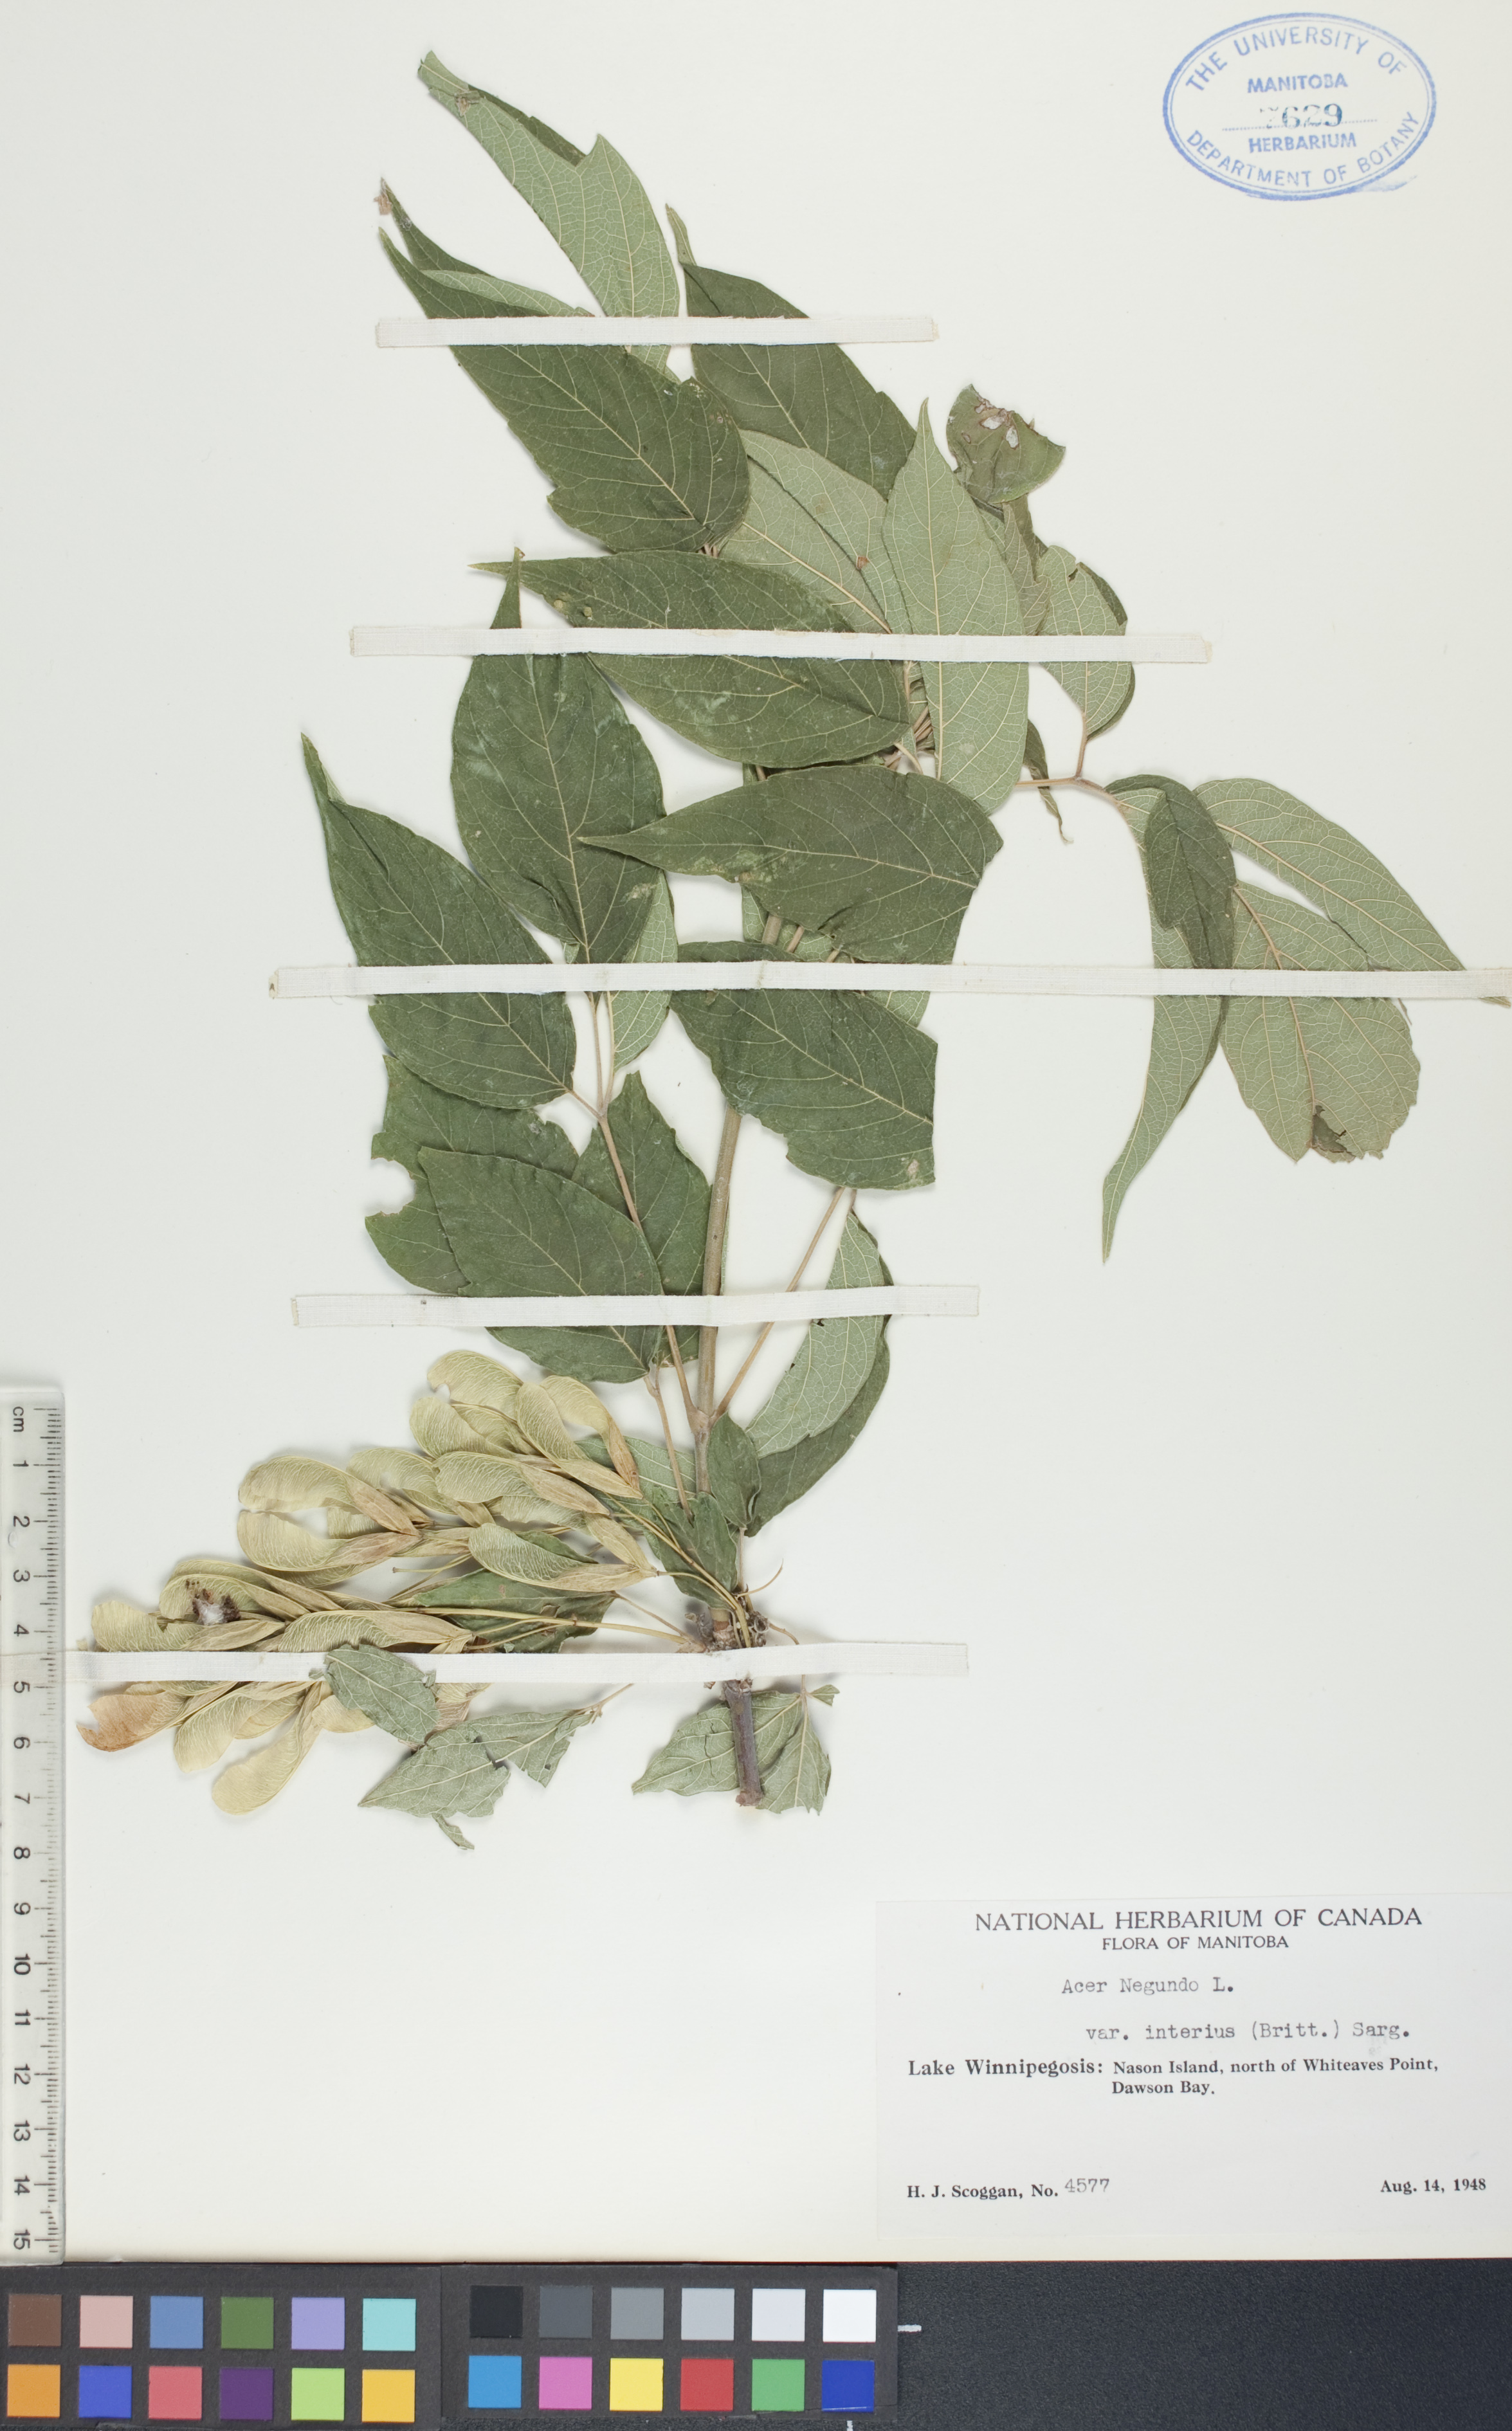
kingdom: Plantae
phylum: Tracheophyta
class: Magnoliopsida
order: Sapindales
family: Sapindaceae
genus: Acer
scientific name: Acer negundo
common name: Ashleaf maple
